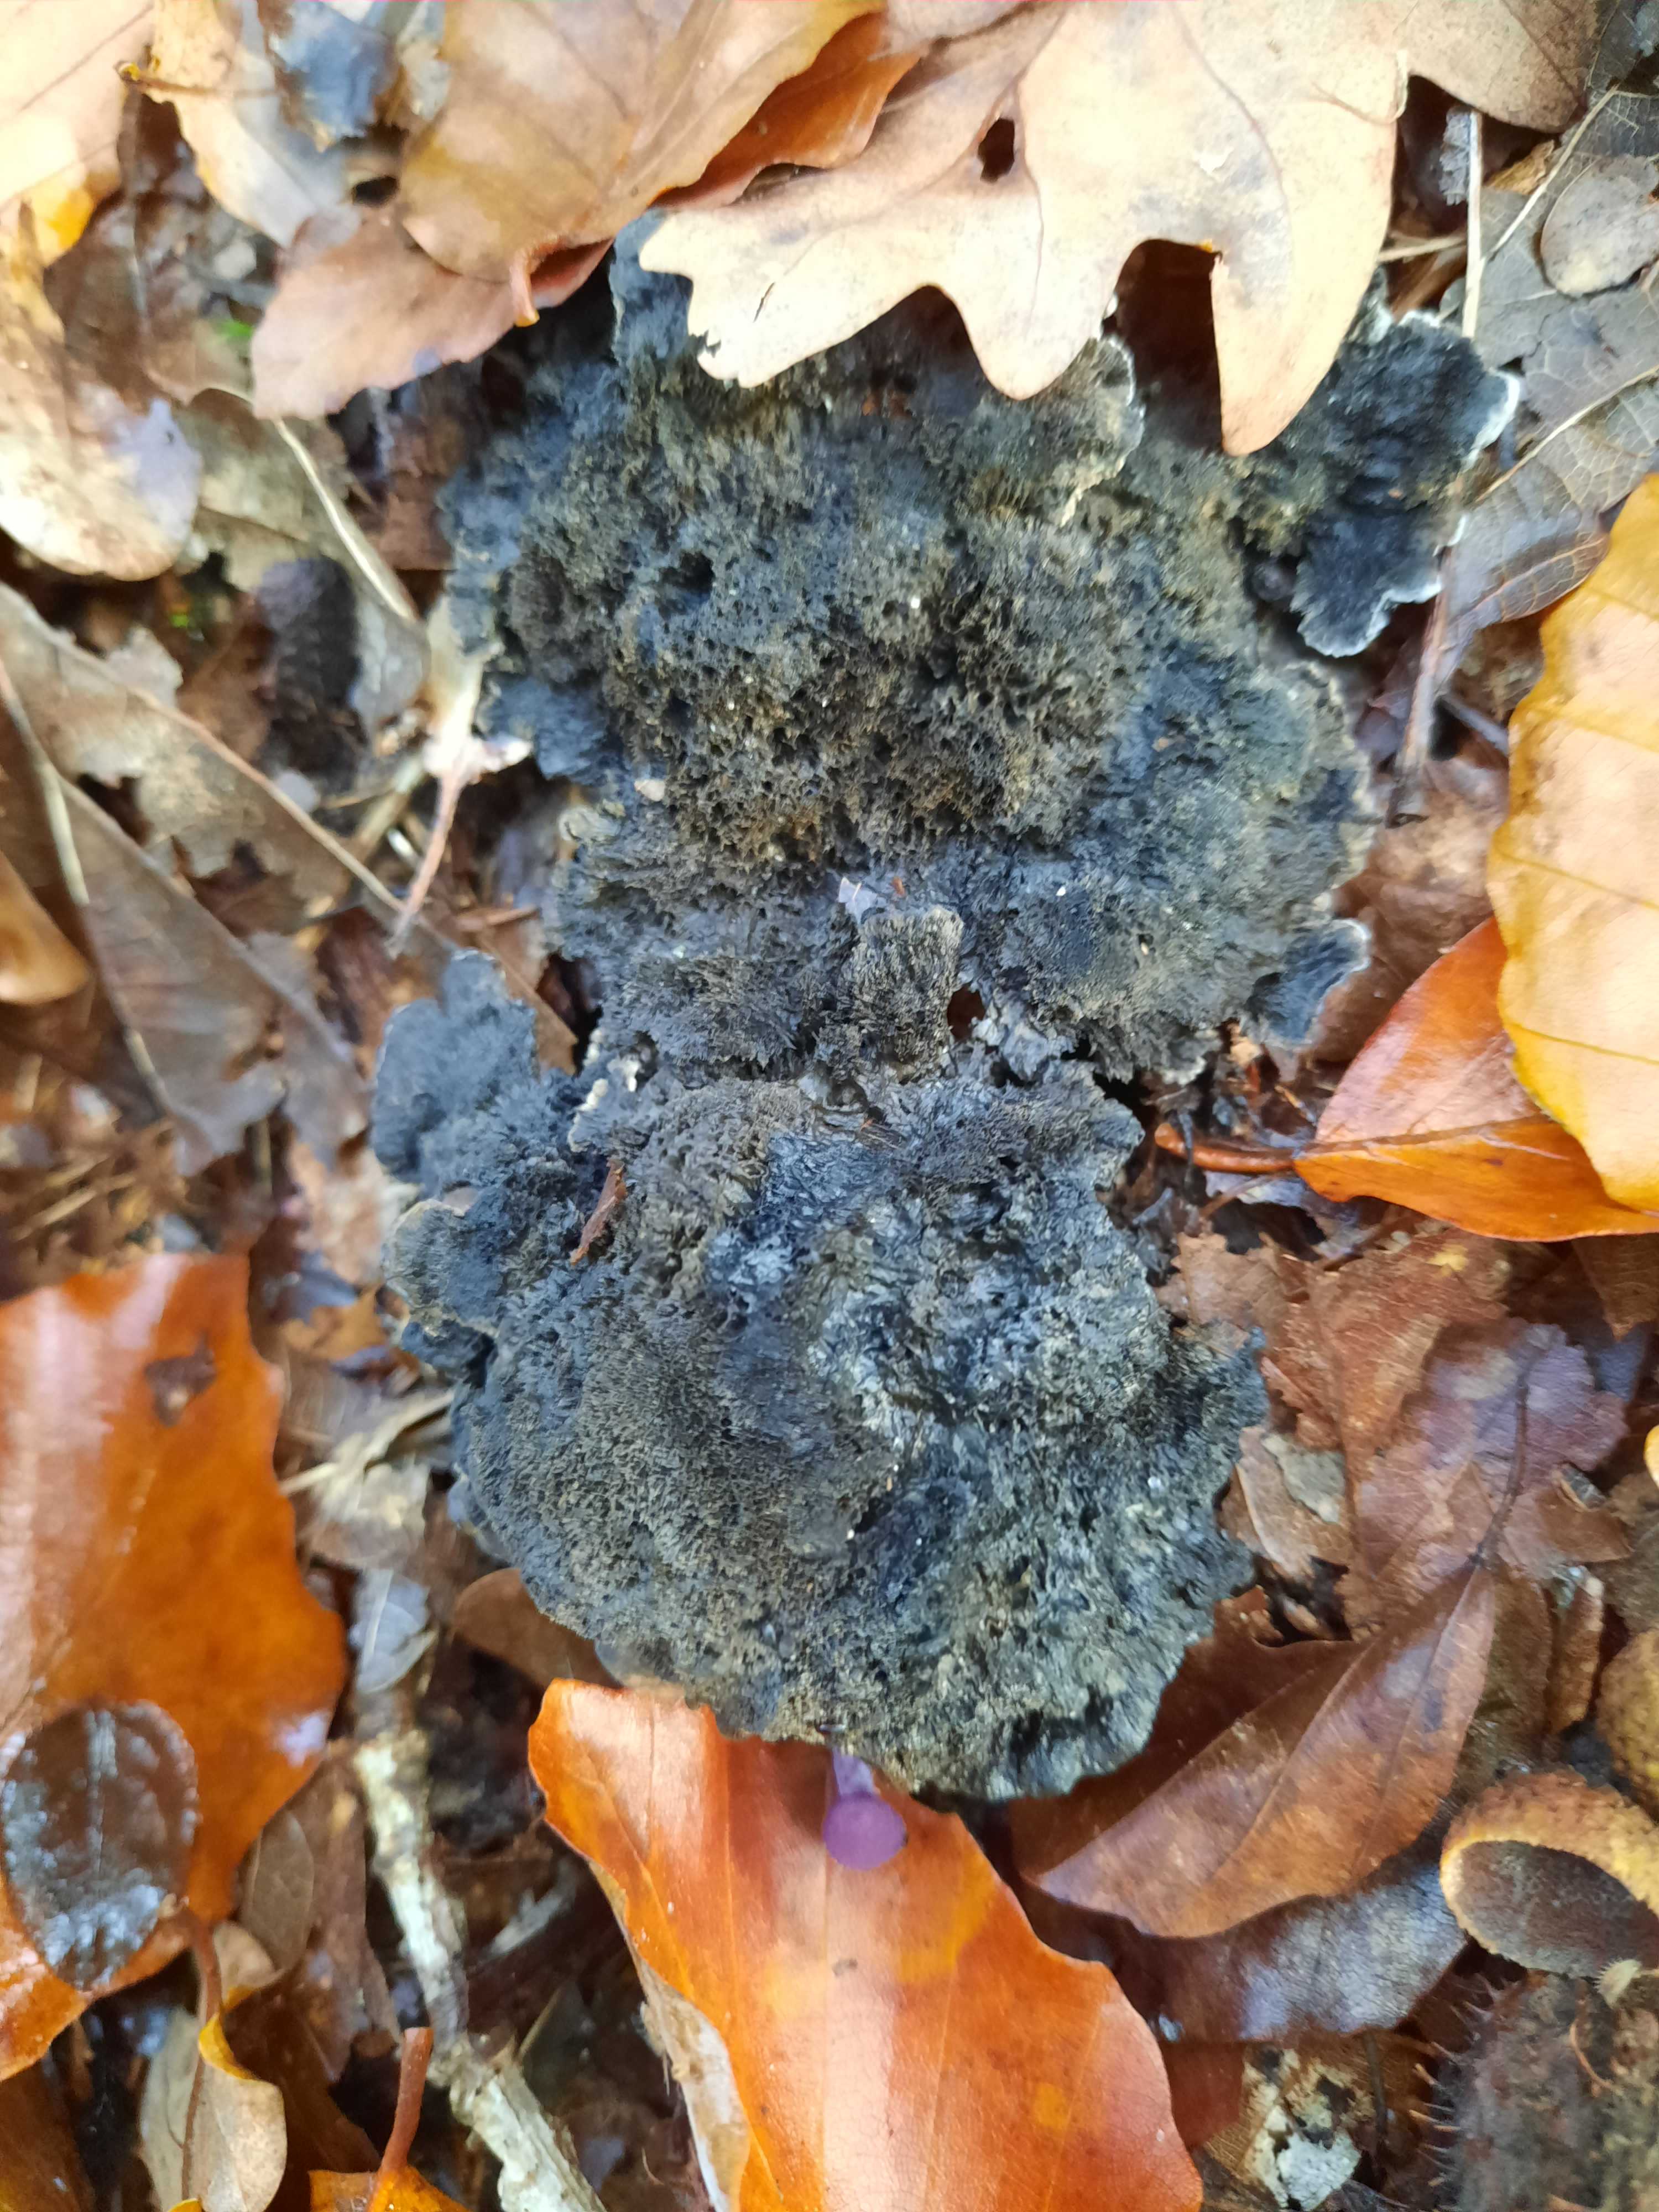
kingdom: Fungi
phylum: Basidiomycota
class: Agaricomycetes
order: Thelephorales
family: Thelephoraceae
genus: Phellodon
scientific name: Phellodon
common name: mørk duftpigsvamp
